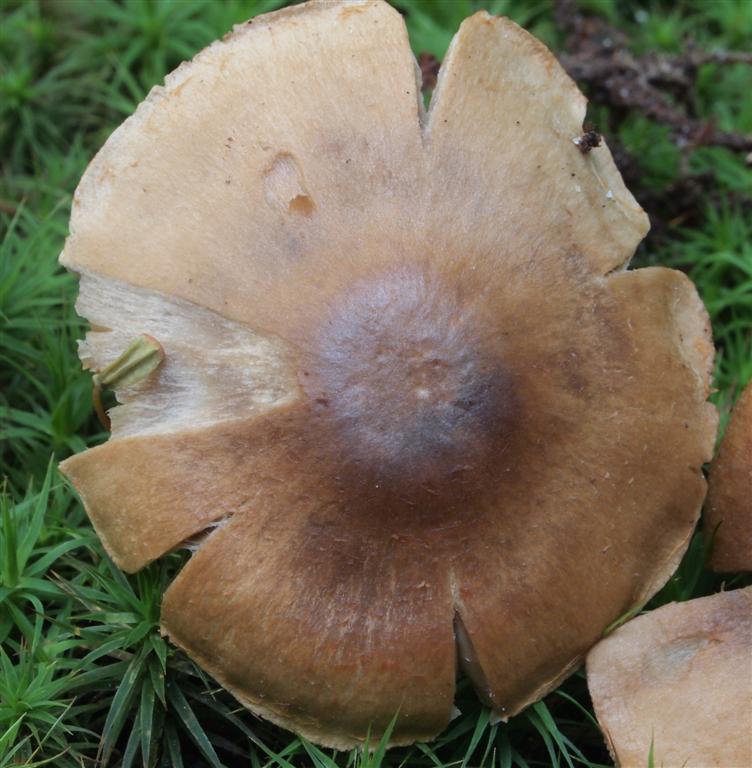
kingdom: Fungi
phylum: Basidiomycota
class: Agaricomycetes
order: Agaricales
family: Cortinariaceae
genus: Cortinarius
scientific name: Cortinarius
